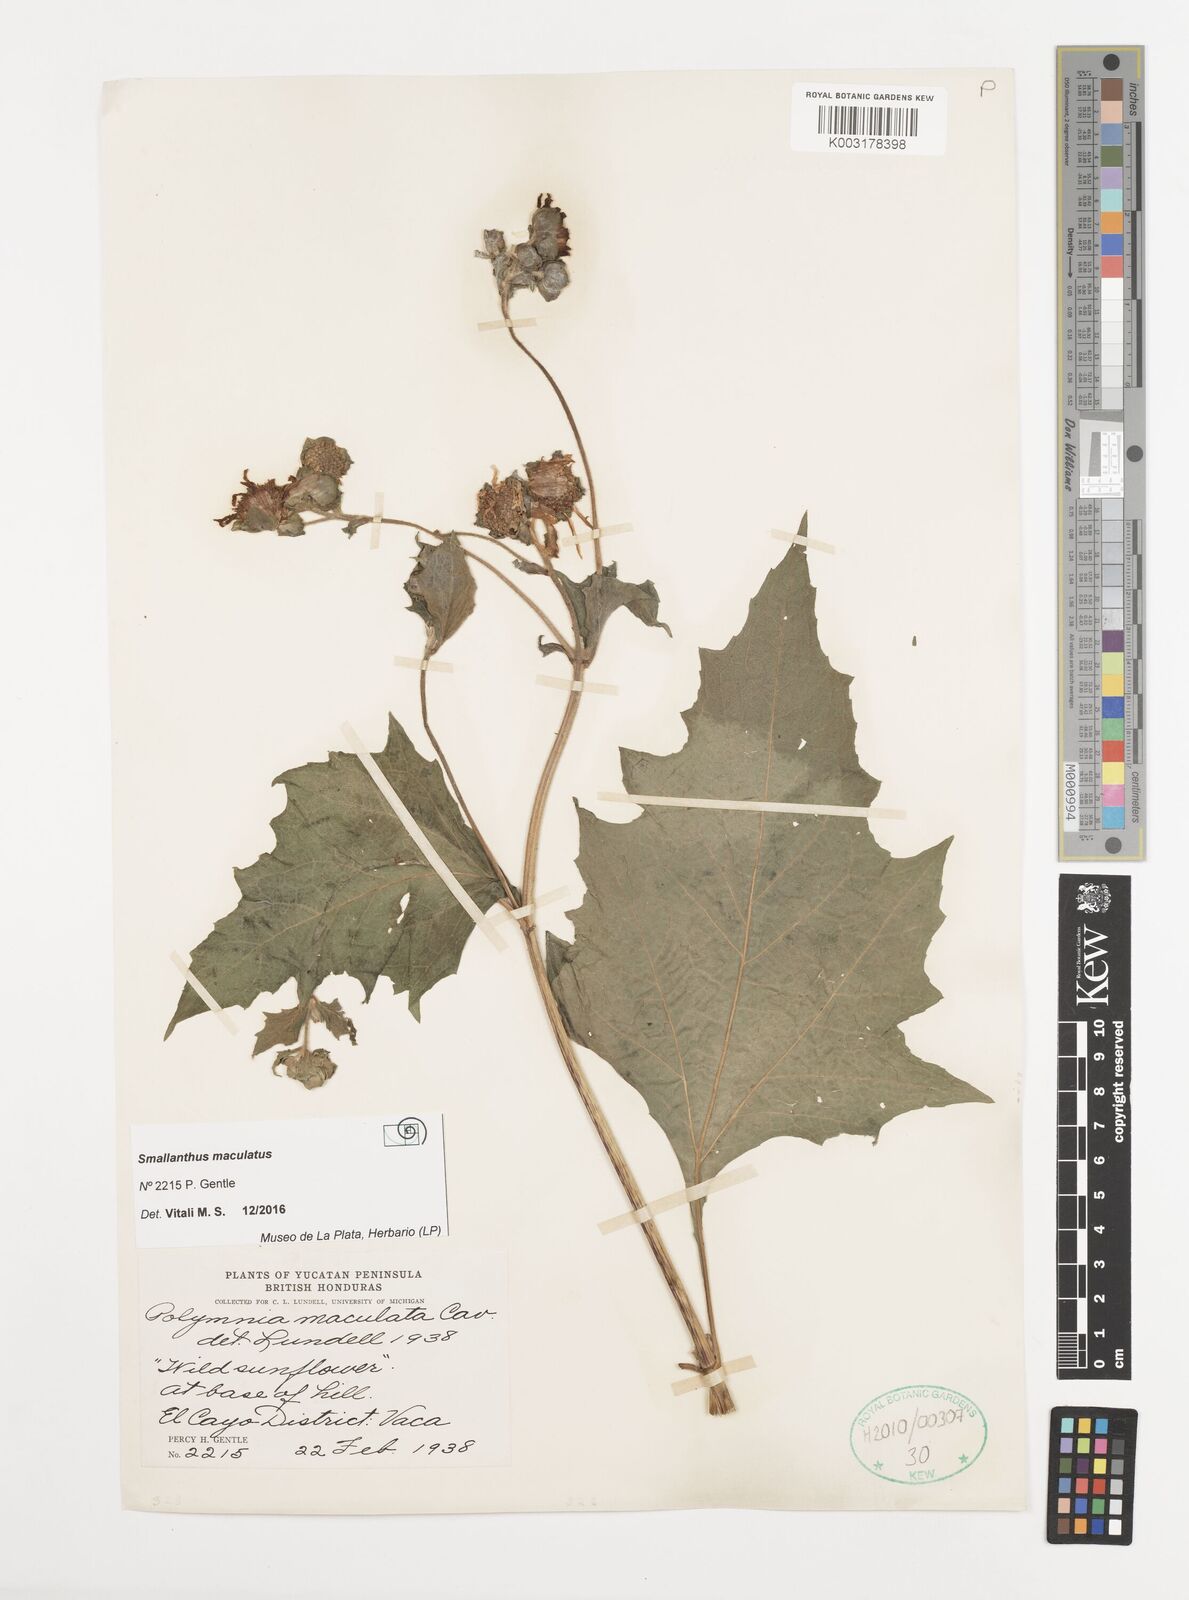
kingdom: Plantae
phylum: Tracheophyta
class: Magnoliopsida
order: Asterales
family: Asteraceae
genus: Smallanthus
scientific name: Smallanthus maculatus
